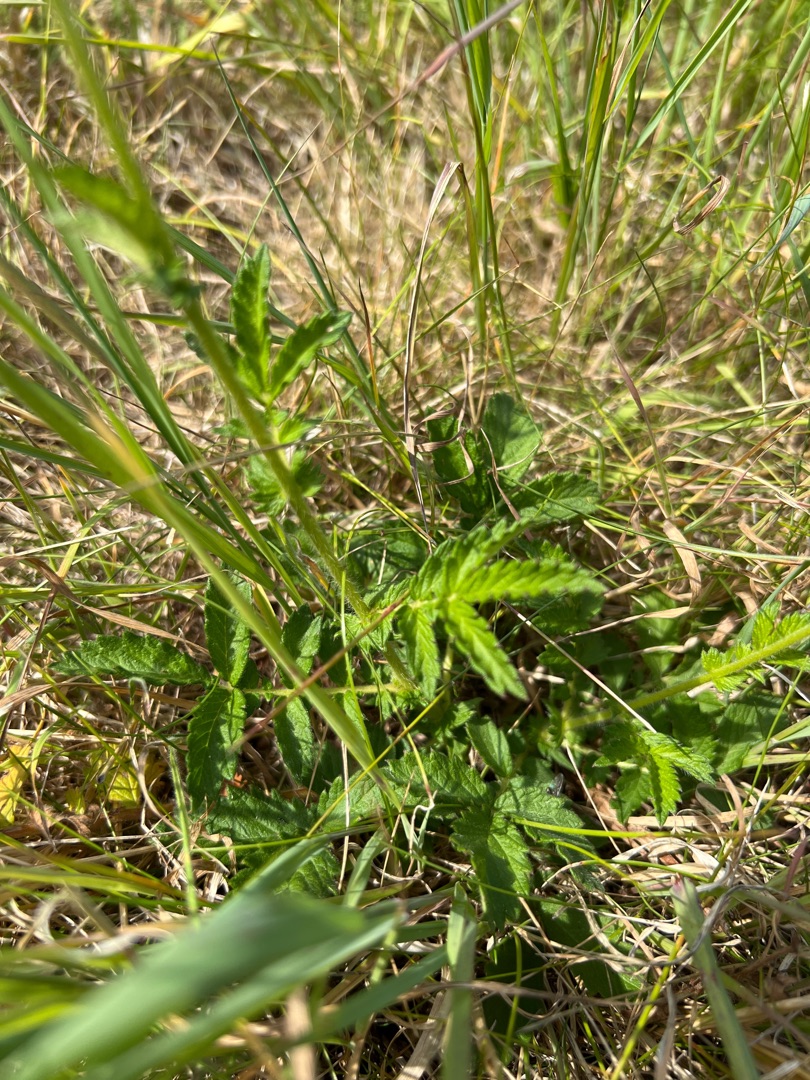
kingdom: Plantae
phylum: Tracheophyta
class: Magnoliopsida
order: Rosales
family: Rosaceae
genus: Agrimonia
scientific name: Agrimonia eupatoria
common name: Almindelig agermåne
